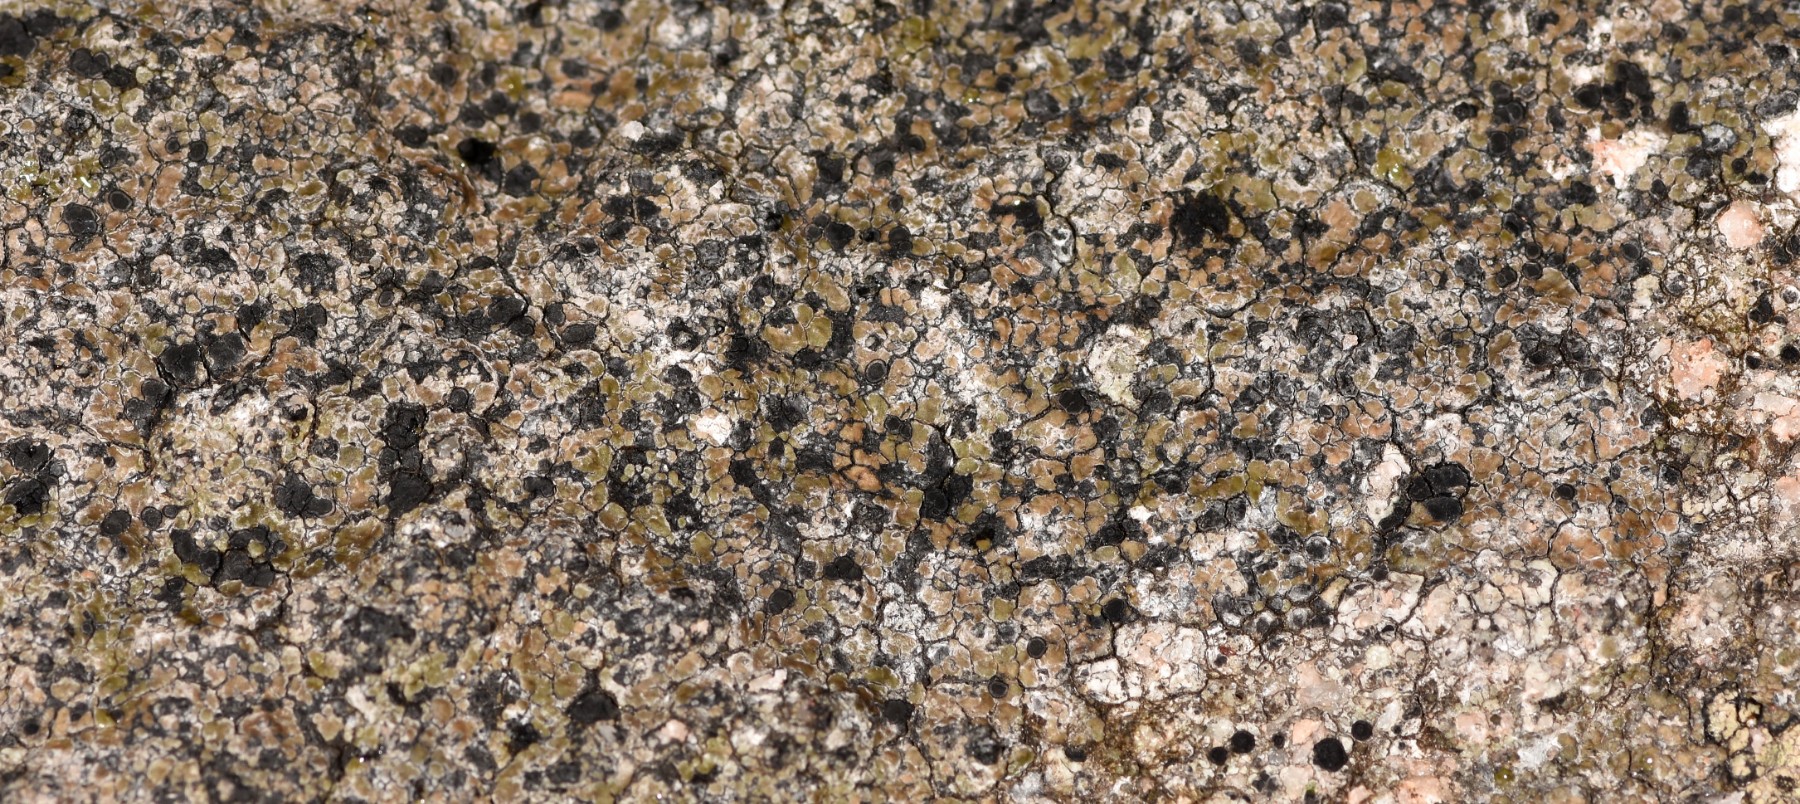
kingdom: Fungi
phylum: Ascomycota
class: Lecanoromycetes
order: Lecideales
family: Lecideaceae
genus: Lecidea
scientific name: Lecidea fuscoatra
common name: rudret skivelav
